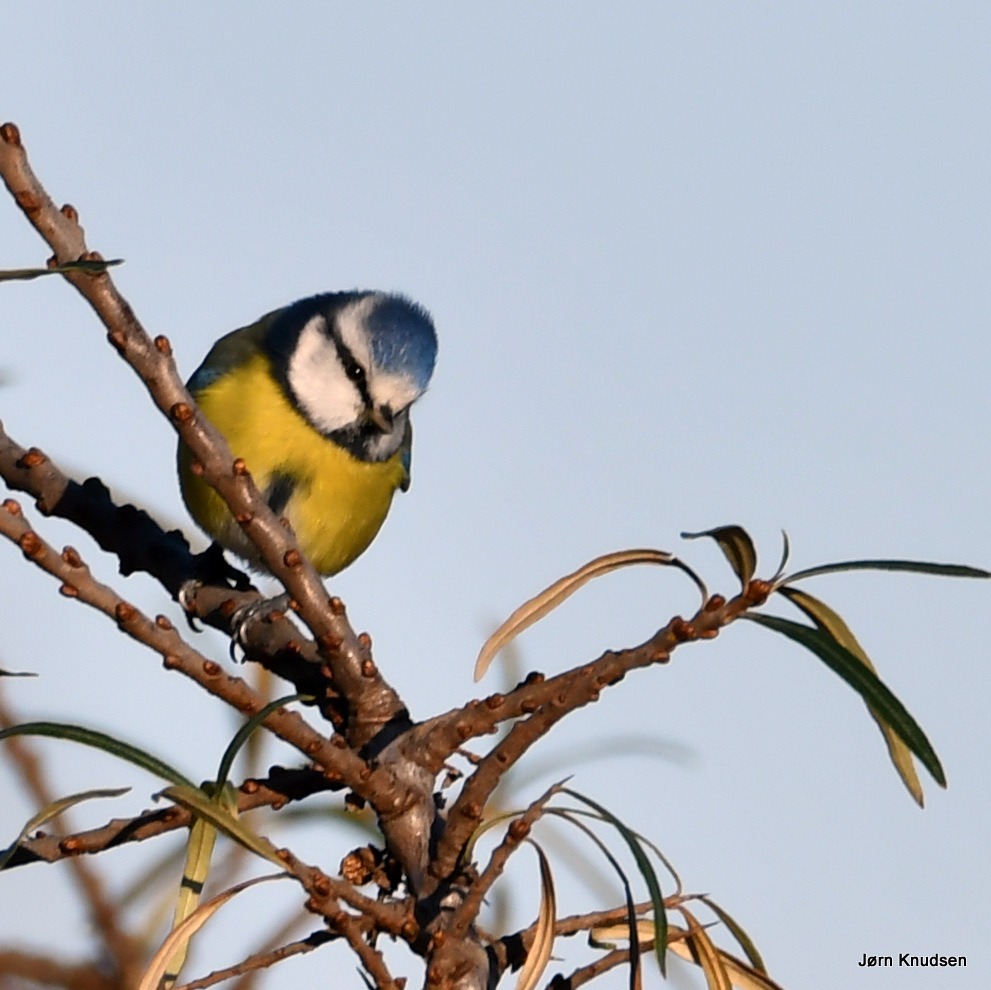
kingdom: Animalia
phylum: Chordata
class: Aves
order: Passeriformes
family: Paridae
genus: Cyanistes
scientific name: Cyanistes caeruleus
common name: Blåmejse
